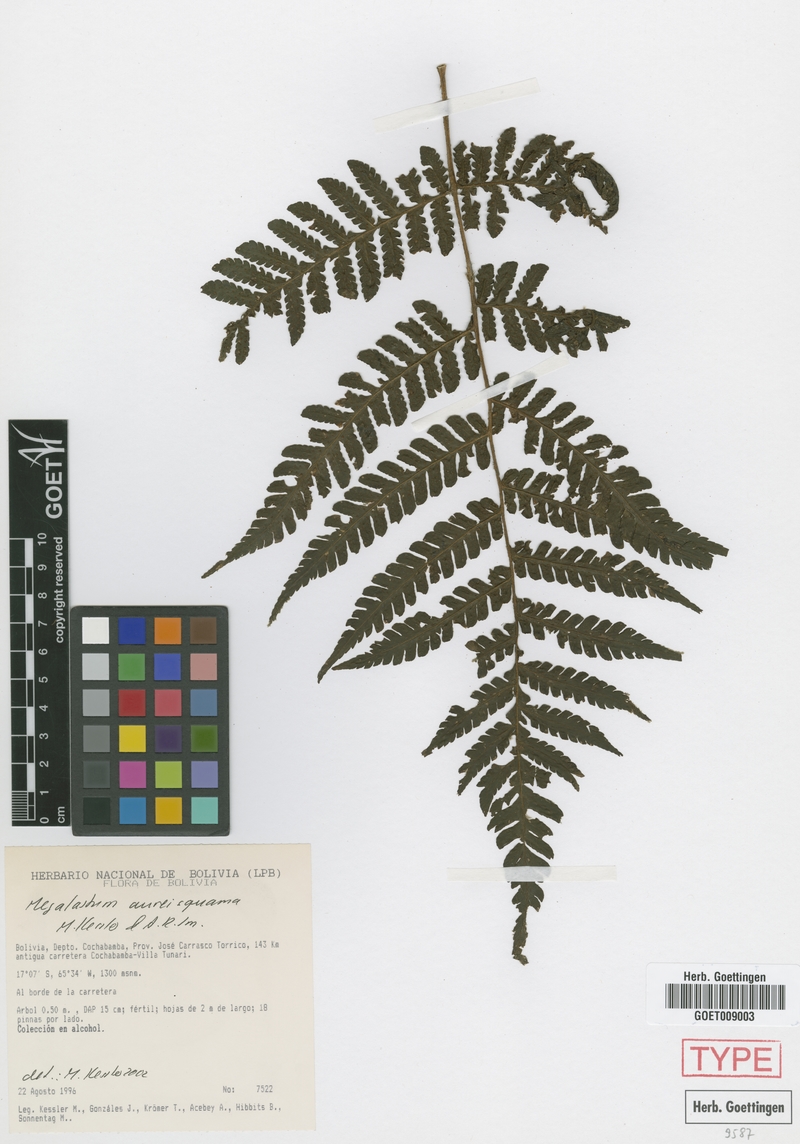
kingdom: Plantae
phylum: Tracheophyta
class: Polypodiopsida
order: Polypodiales
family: Dryopteridaceae
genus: Megalastrum
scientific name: Megalastrum aureisquama
